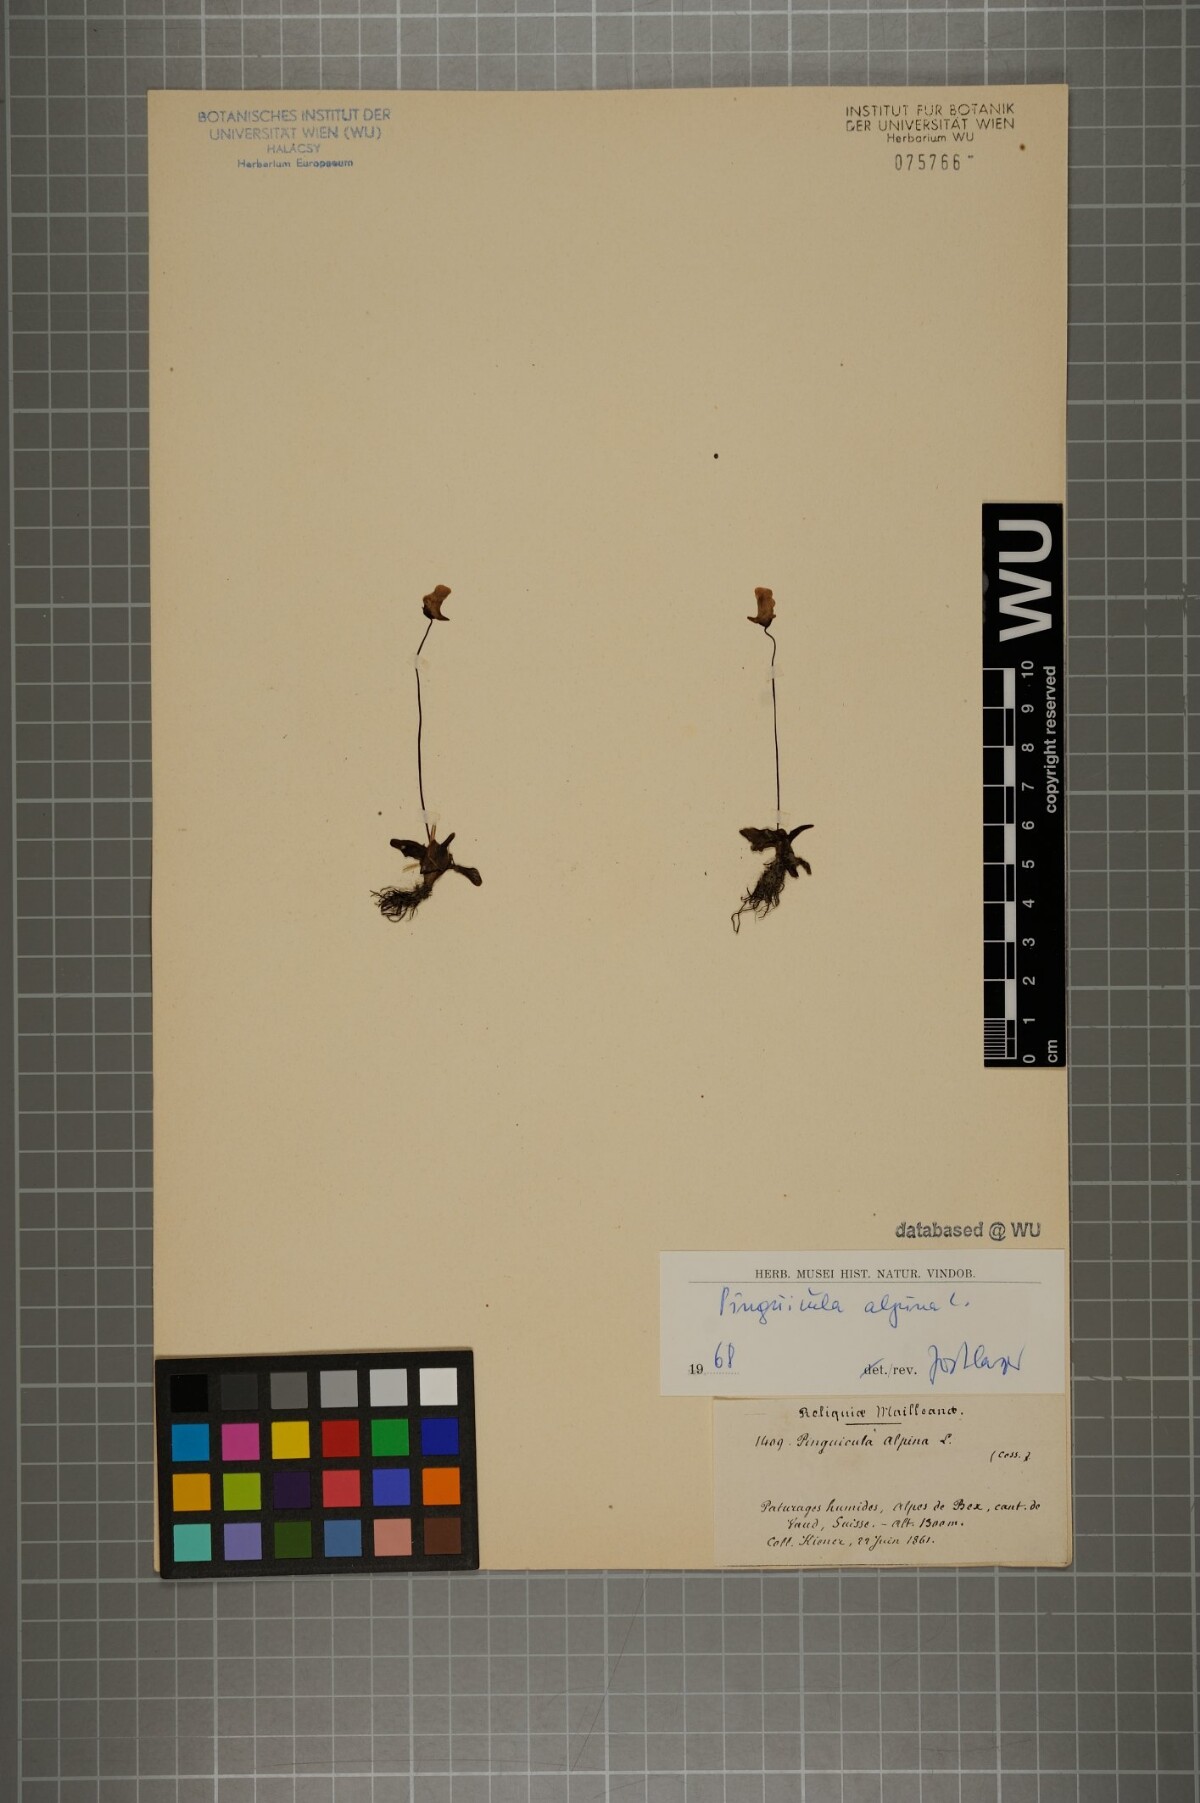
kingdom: Plantae
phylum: Tracheophyta
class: Magnoliopsida
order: Lamiales
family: Lentibulariaceae
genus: Pinguicula
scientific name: Pinguicula alpina
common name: Alpine butterwort
